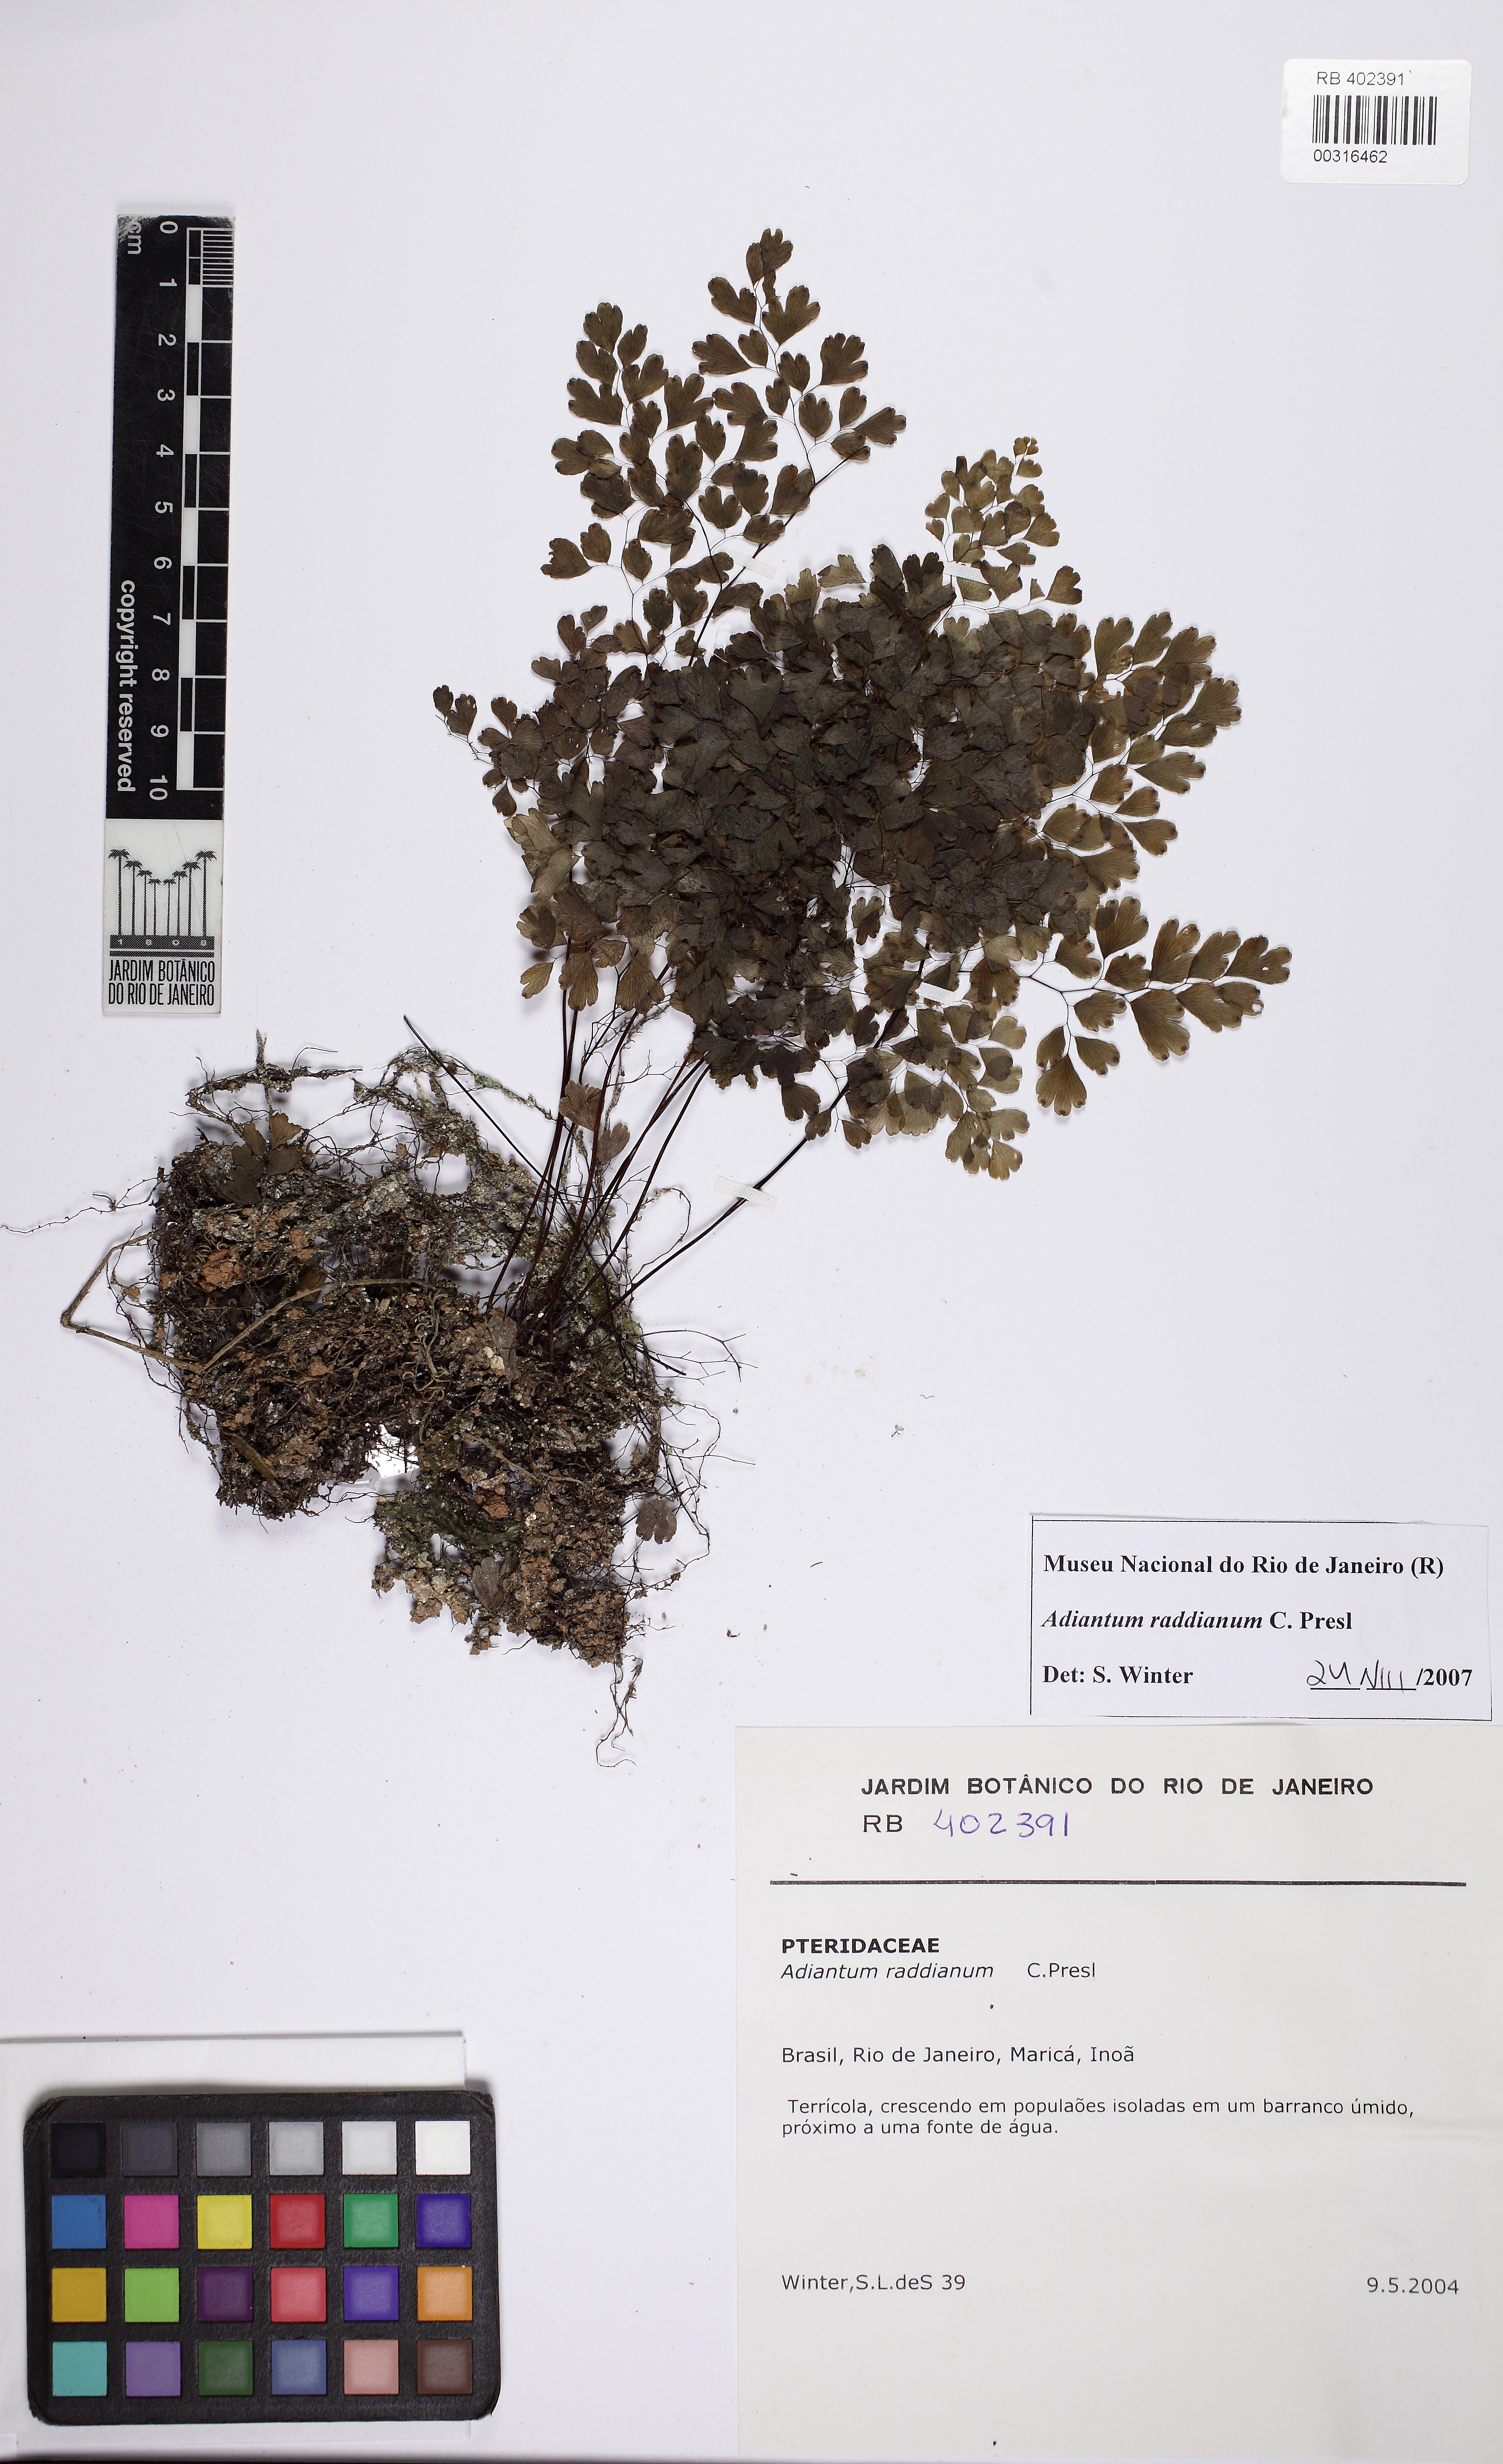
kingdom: Plantae
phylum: Tracheophyta
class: Polypodiopsida
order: Polypodiales
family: Pteridaceae
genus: Adiantum
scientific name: Adiantum raddianum
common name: Delta maidenhair fern
